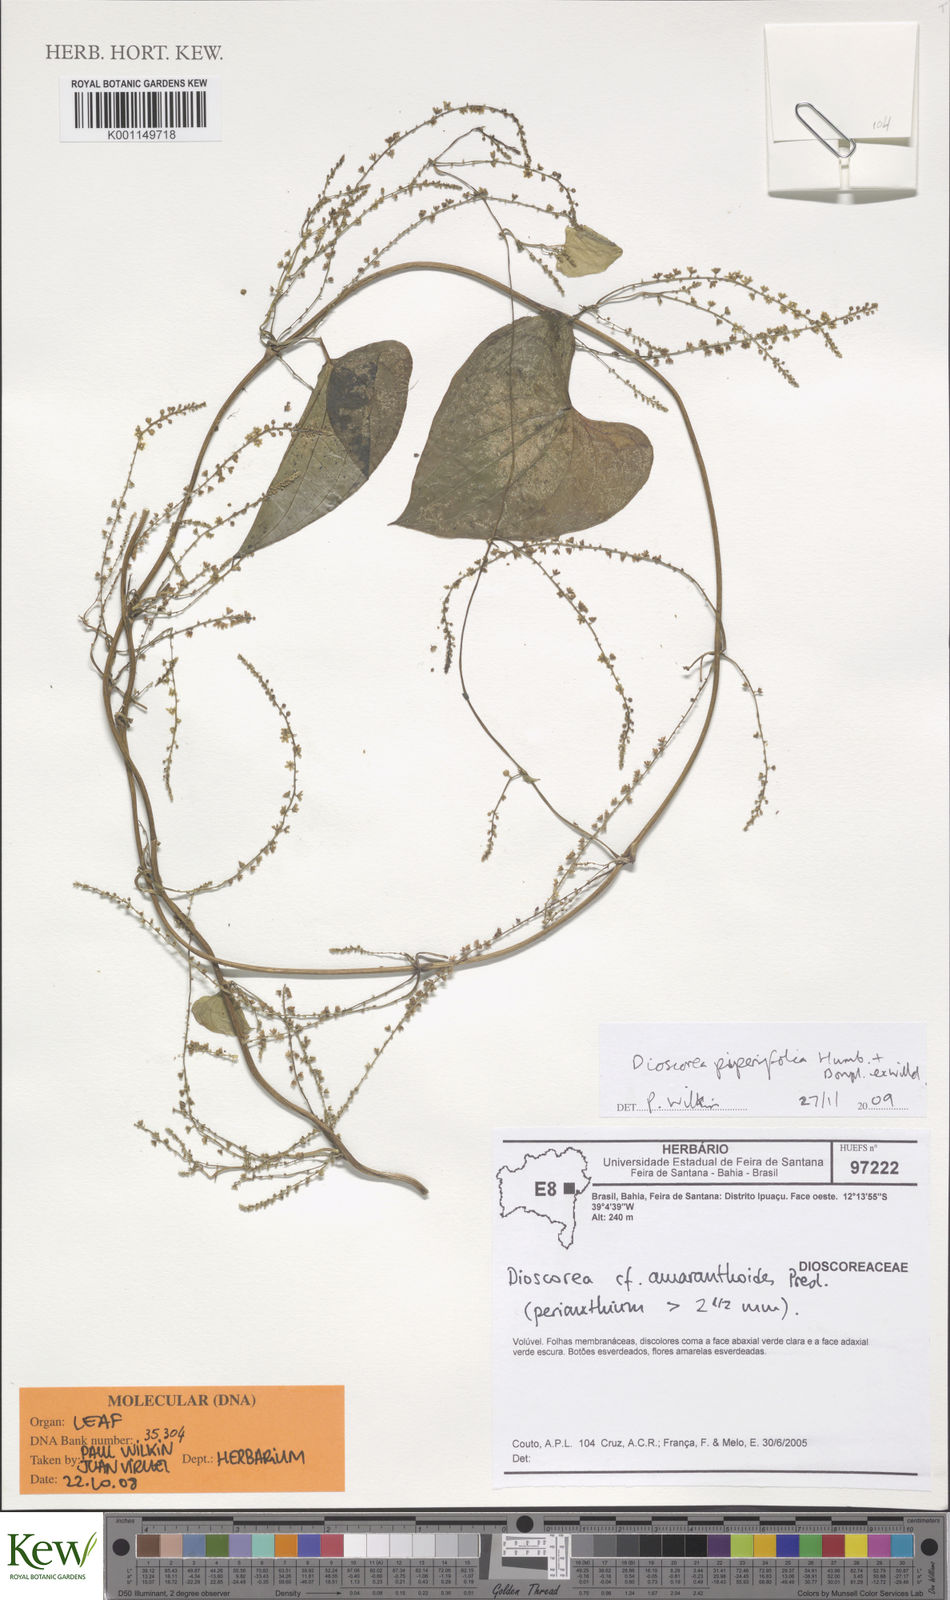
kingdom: Plantae
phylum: Tracheophyta
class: Liliopsida
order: Dioscoreales
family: Dioscoreaceae
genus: Dioscorea
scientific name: Dioscorea piperifolia
